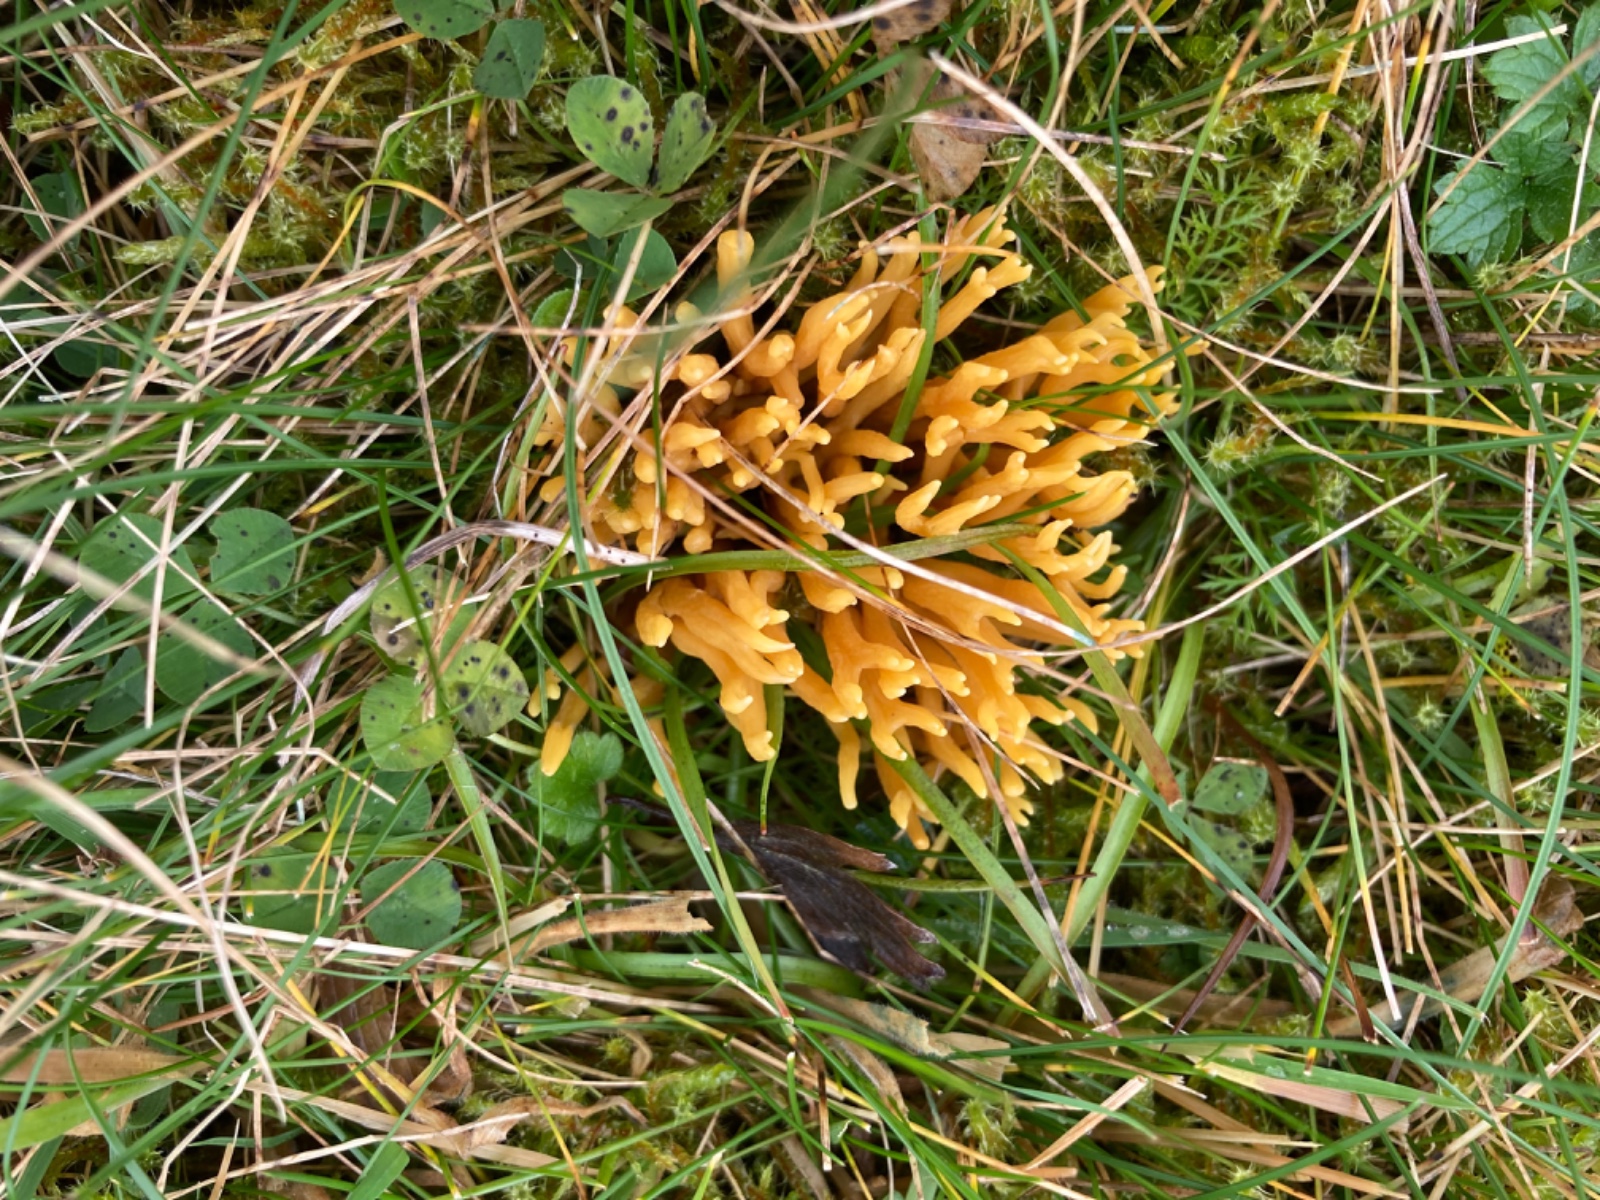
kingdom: Fungi
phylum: Basidiomycota
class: Agaricomycetes
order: Agaricales
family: Clavariaceae
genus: Clavulinopsis
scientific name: Clavulinopsis corniculata
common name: eng-køllesvamp
